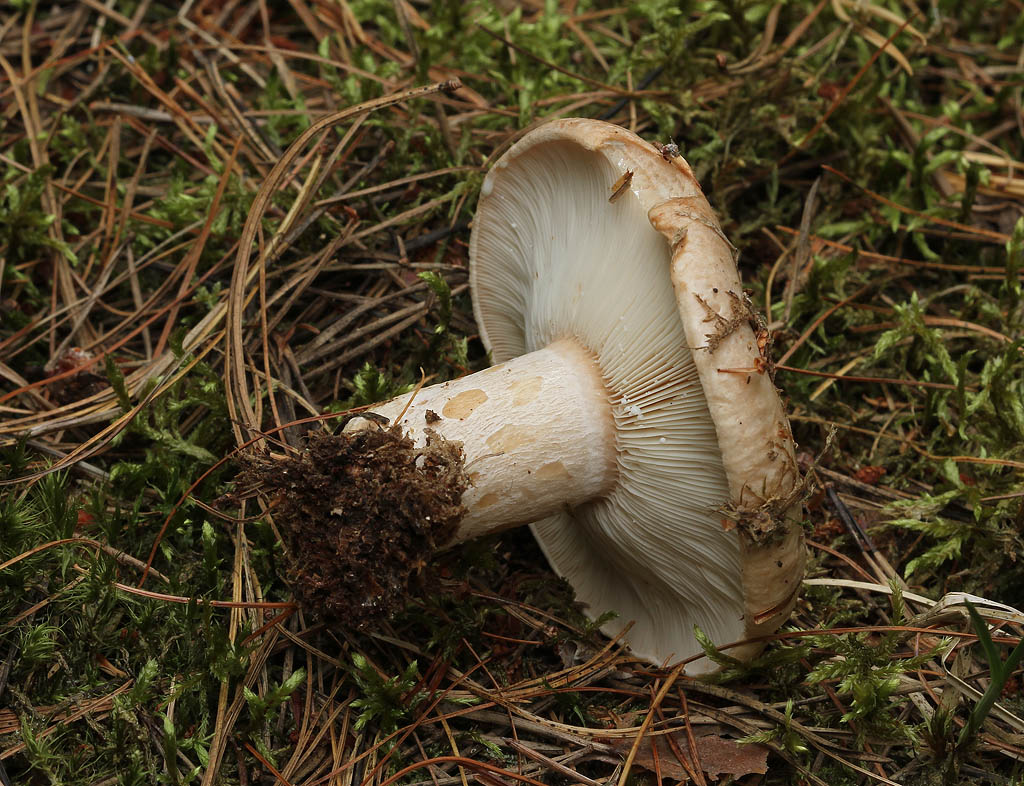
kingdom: Fungi
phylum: Basidiomycota
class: Agaricomycetes
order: Russulales
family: Russulaceae
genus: Lactarius
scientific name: Lactarius musteus
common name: elfenbens-mælkehat
